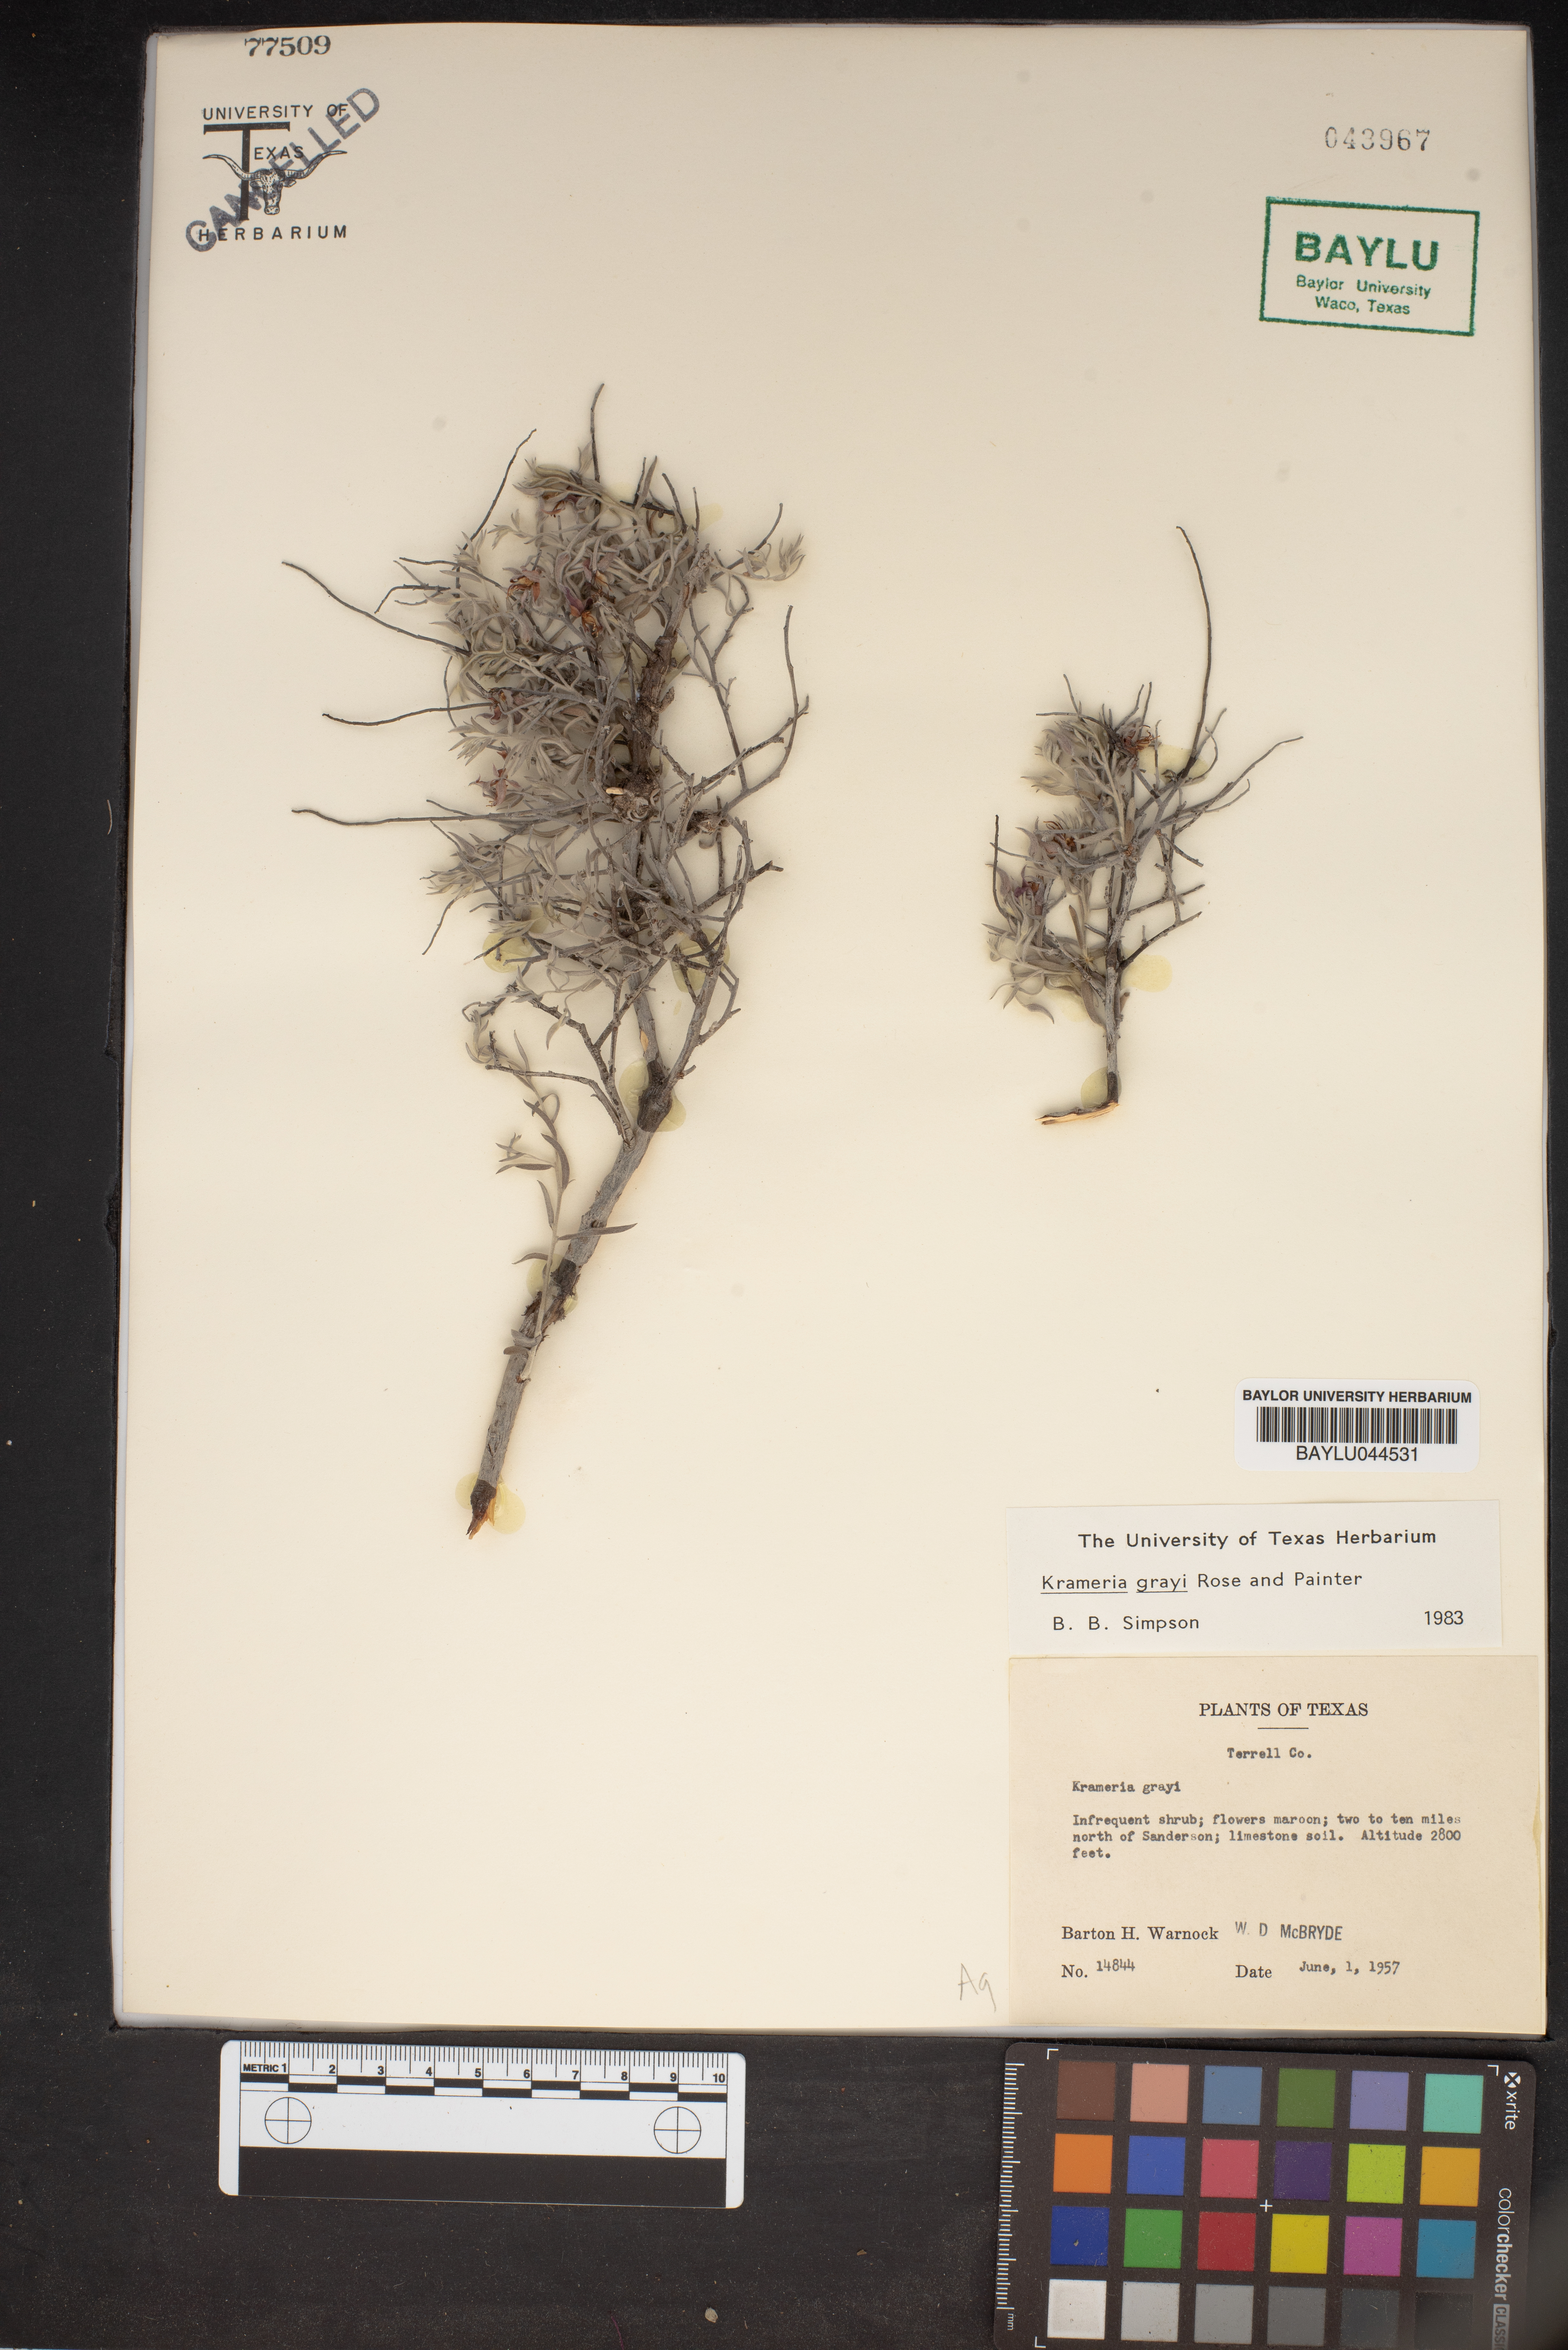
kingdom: Plantae
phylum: Tracheophyta
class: Magnoliopsida
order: Zygophyllales
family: Krameriaceae
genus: Krameria
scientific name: Krameria bicolor
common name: White ratany
